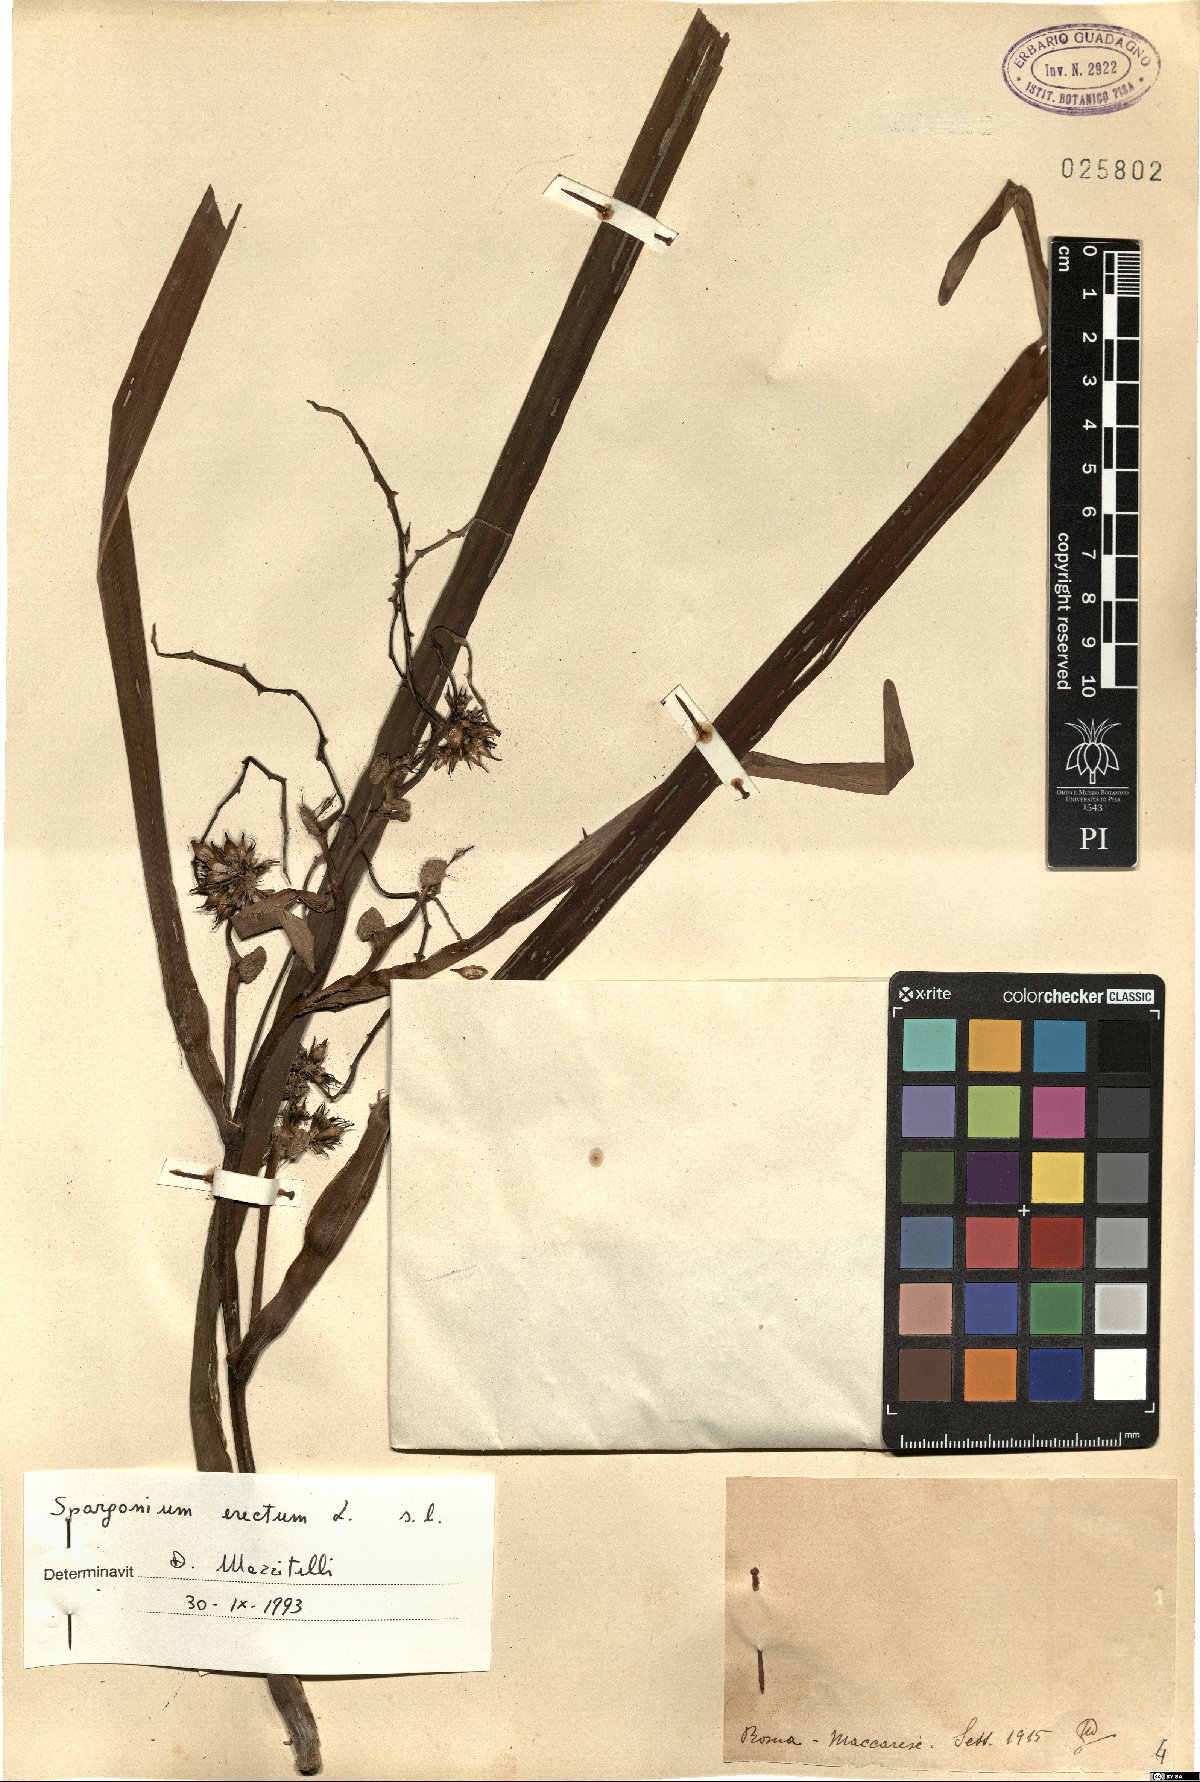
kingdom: Plantae
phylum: Tracheophyta
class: Liliopsida
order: Poales
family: Typhaceae
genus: Sparganium
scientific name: Sparganium erectum
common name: Branched bur-reed
